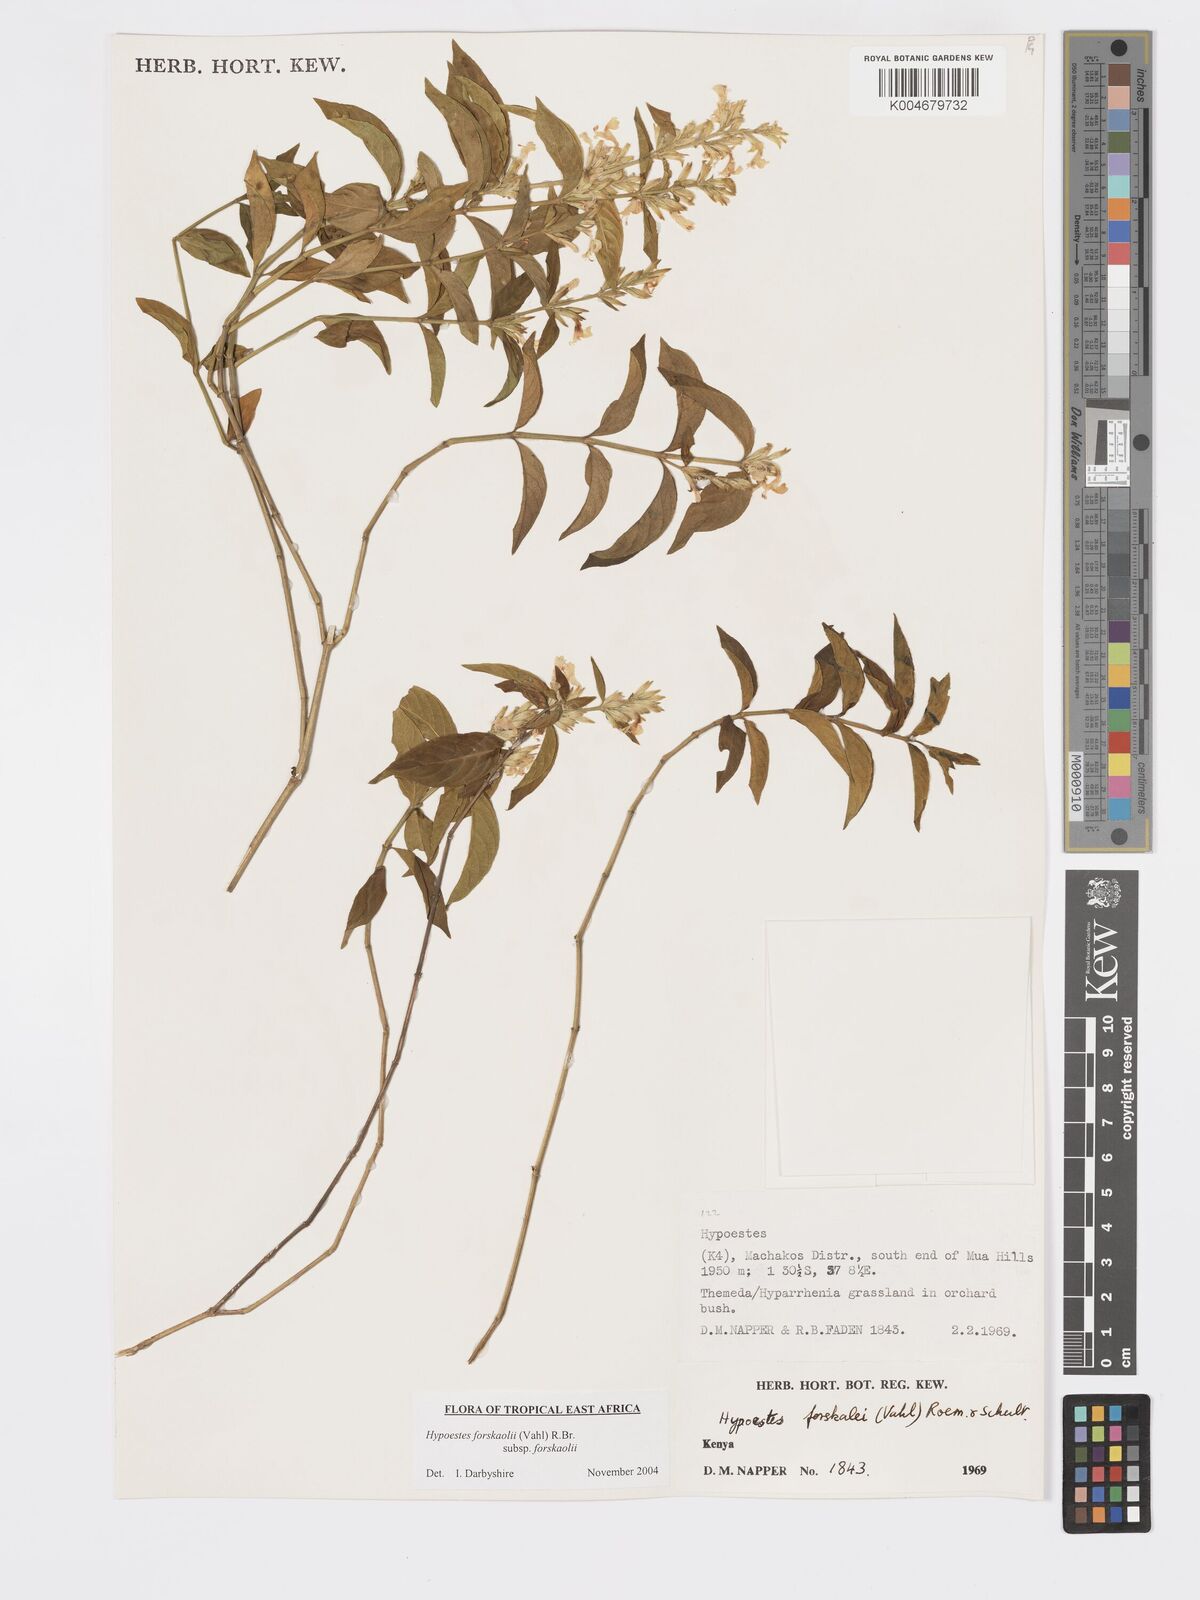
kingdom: Plantae
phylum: Tracheophyta
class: Magnoliopsida
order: Lamiales
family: Acanthaceae
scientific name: Acanthaceae
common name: Acanthaceae
